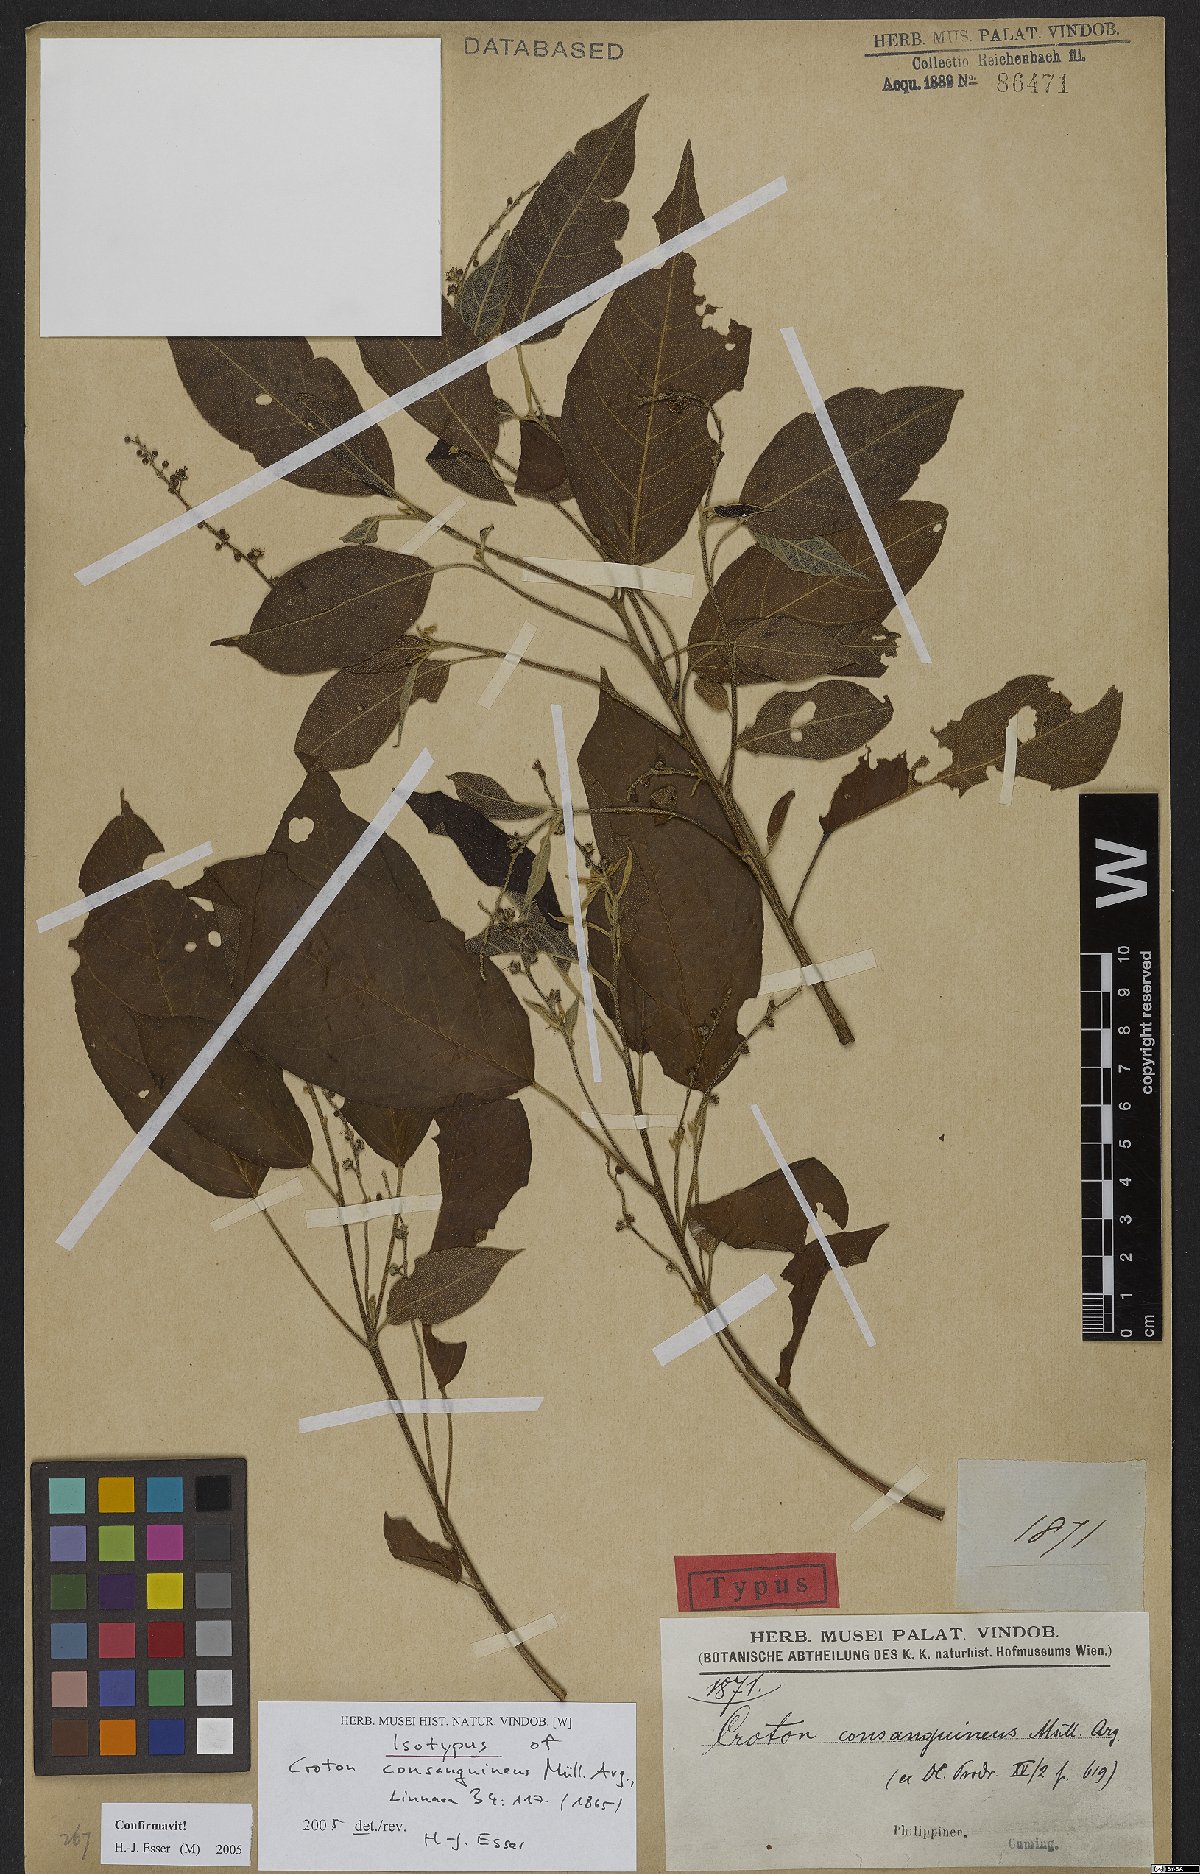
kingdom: Plantae
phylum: Tracheophyta
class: Magnoliopsida
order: Malpighiales
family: Euphorbiaceae
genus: Croton
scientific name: Croton consanguineus
